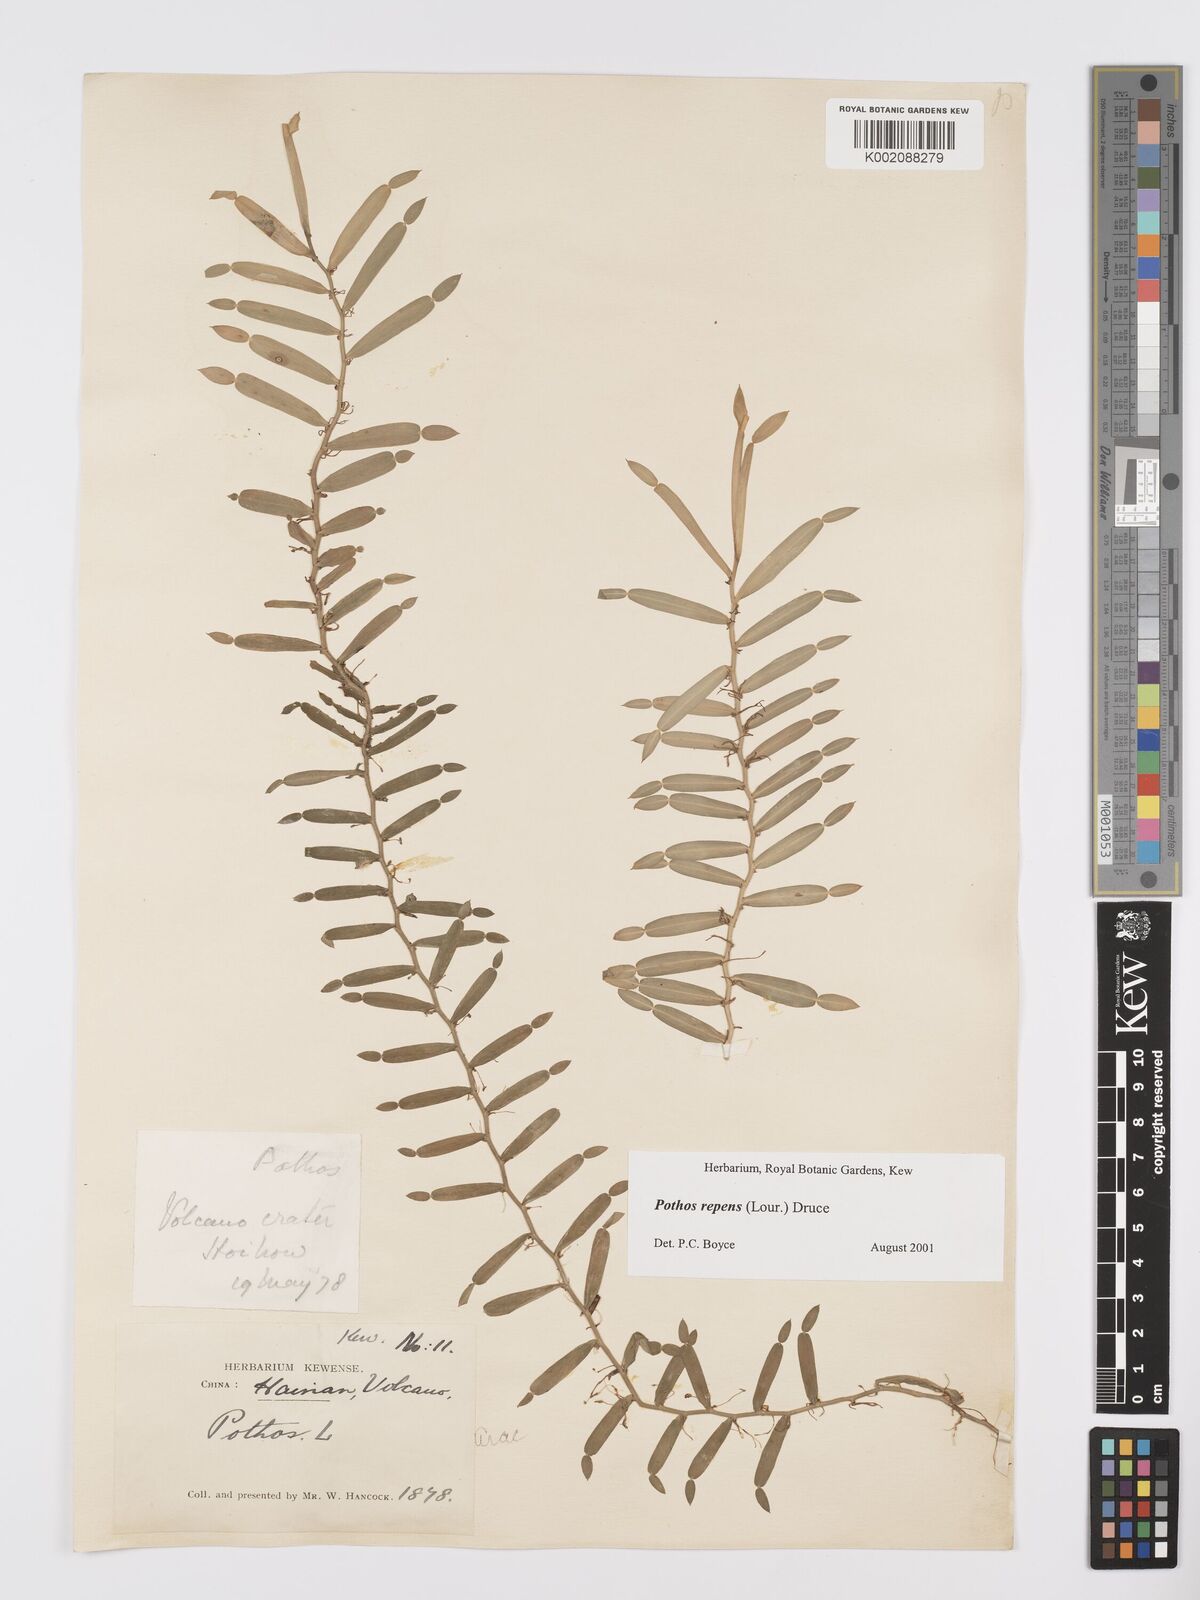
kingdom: Plantae
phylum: Tracheophyta
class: Liliopsida
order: Alismatales
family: Araceae
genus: Pothos
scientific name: Pothos repens
